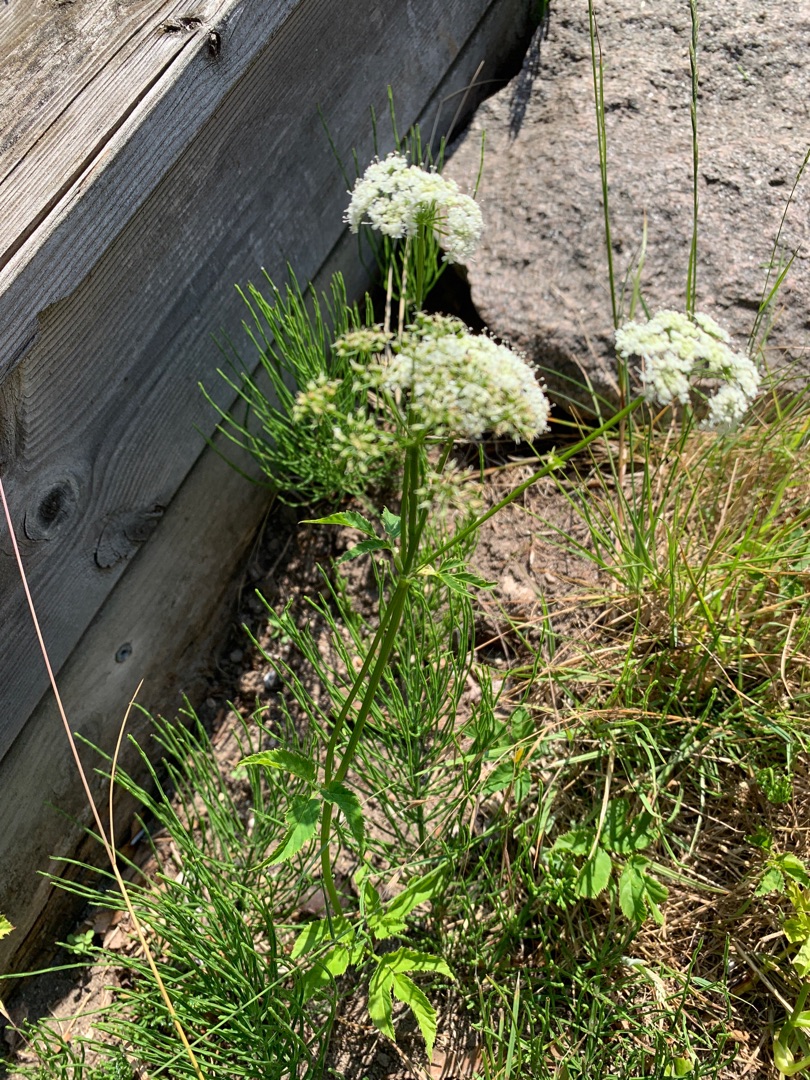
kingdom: Plantae
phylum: Tracheophyta
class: Magnoliopsida
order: Apiales
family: Apiaceae
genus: Aegopodium
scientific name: Aegopodium podagraria
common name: Skvalderkål
